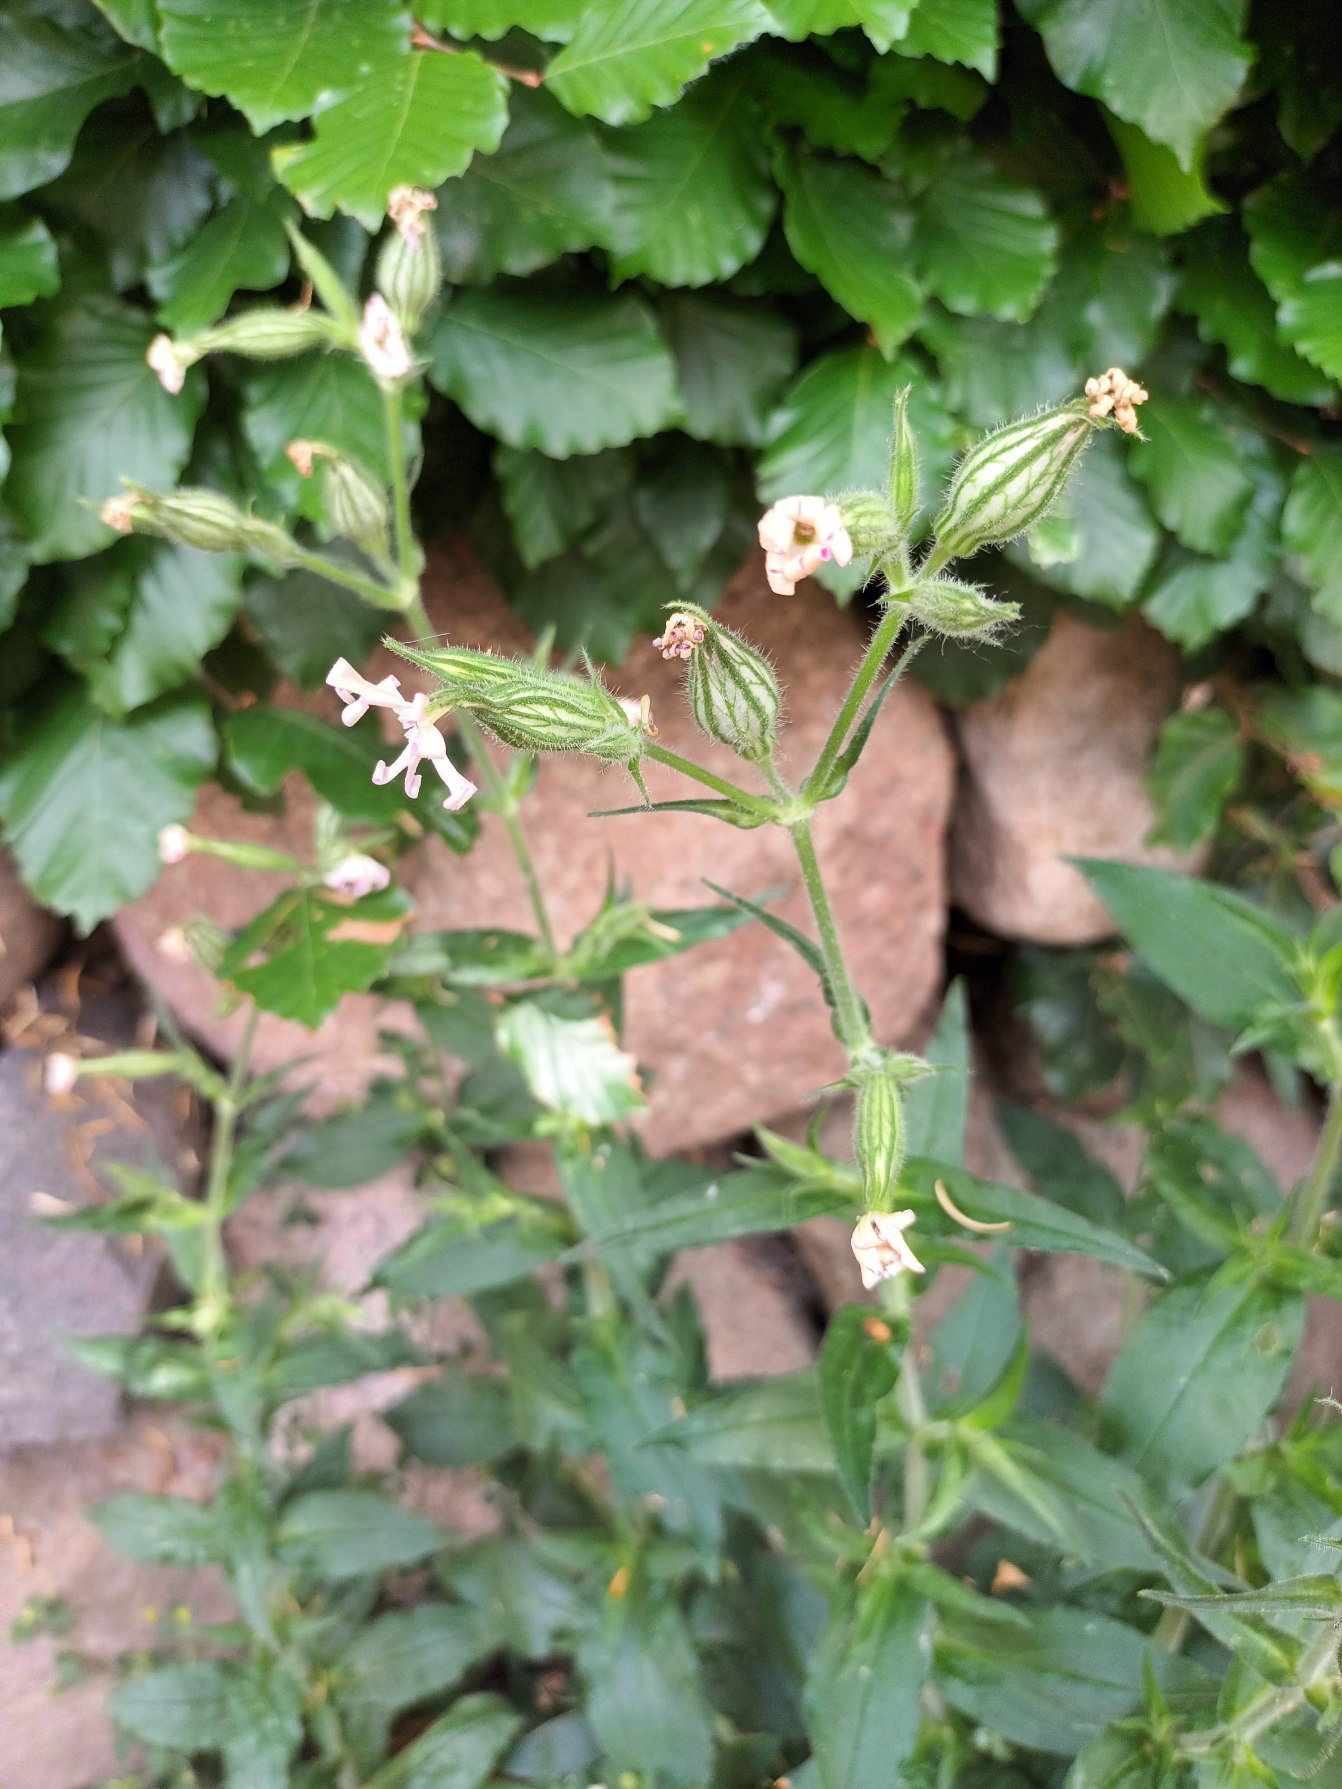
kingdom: Plantae
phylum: Tracheophyta
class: Magnoliopsida
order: Caryophyllales
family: Caryophyllaceae
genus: Silene
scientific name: Silene noctiflora
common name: Nat-limurt
